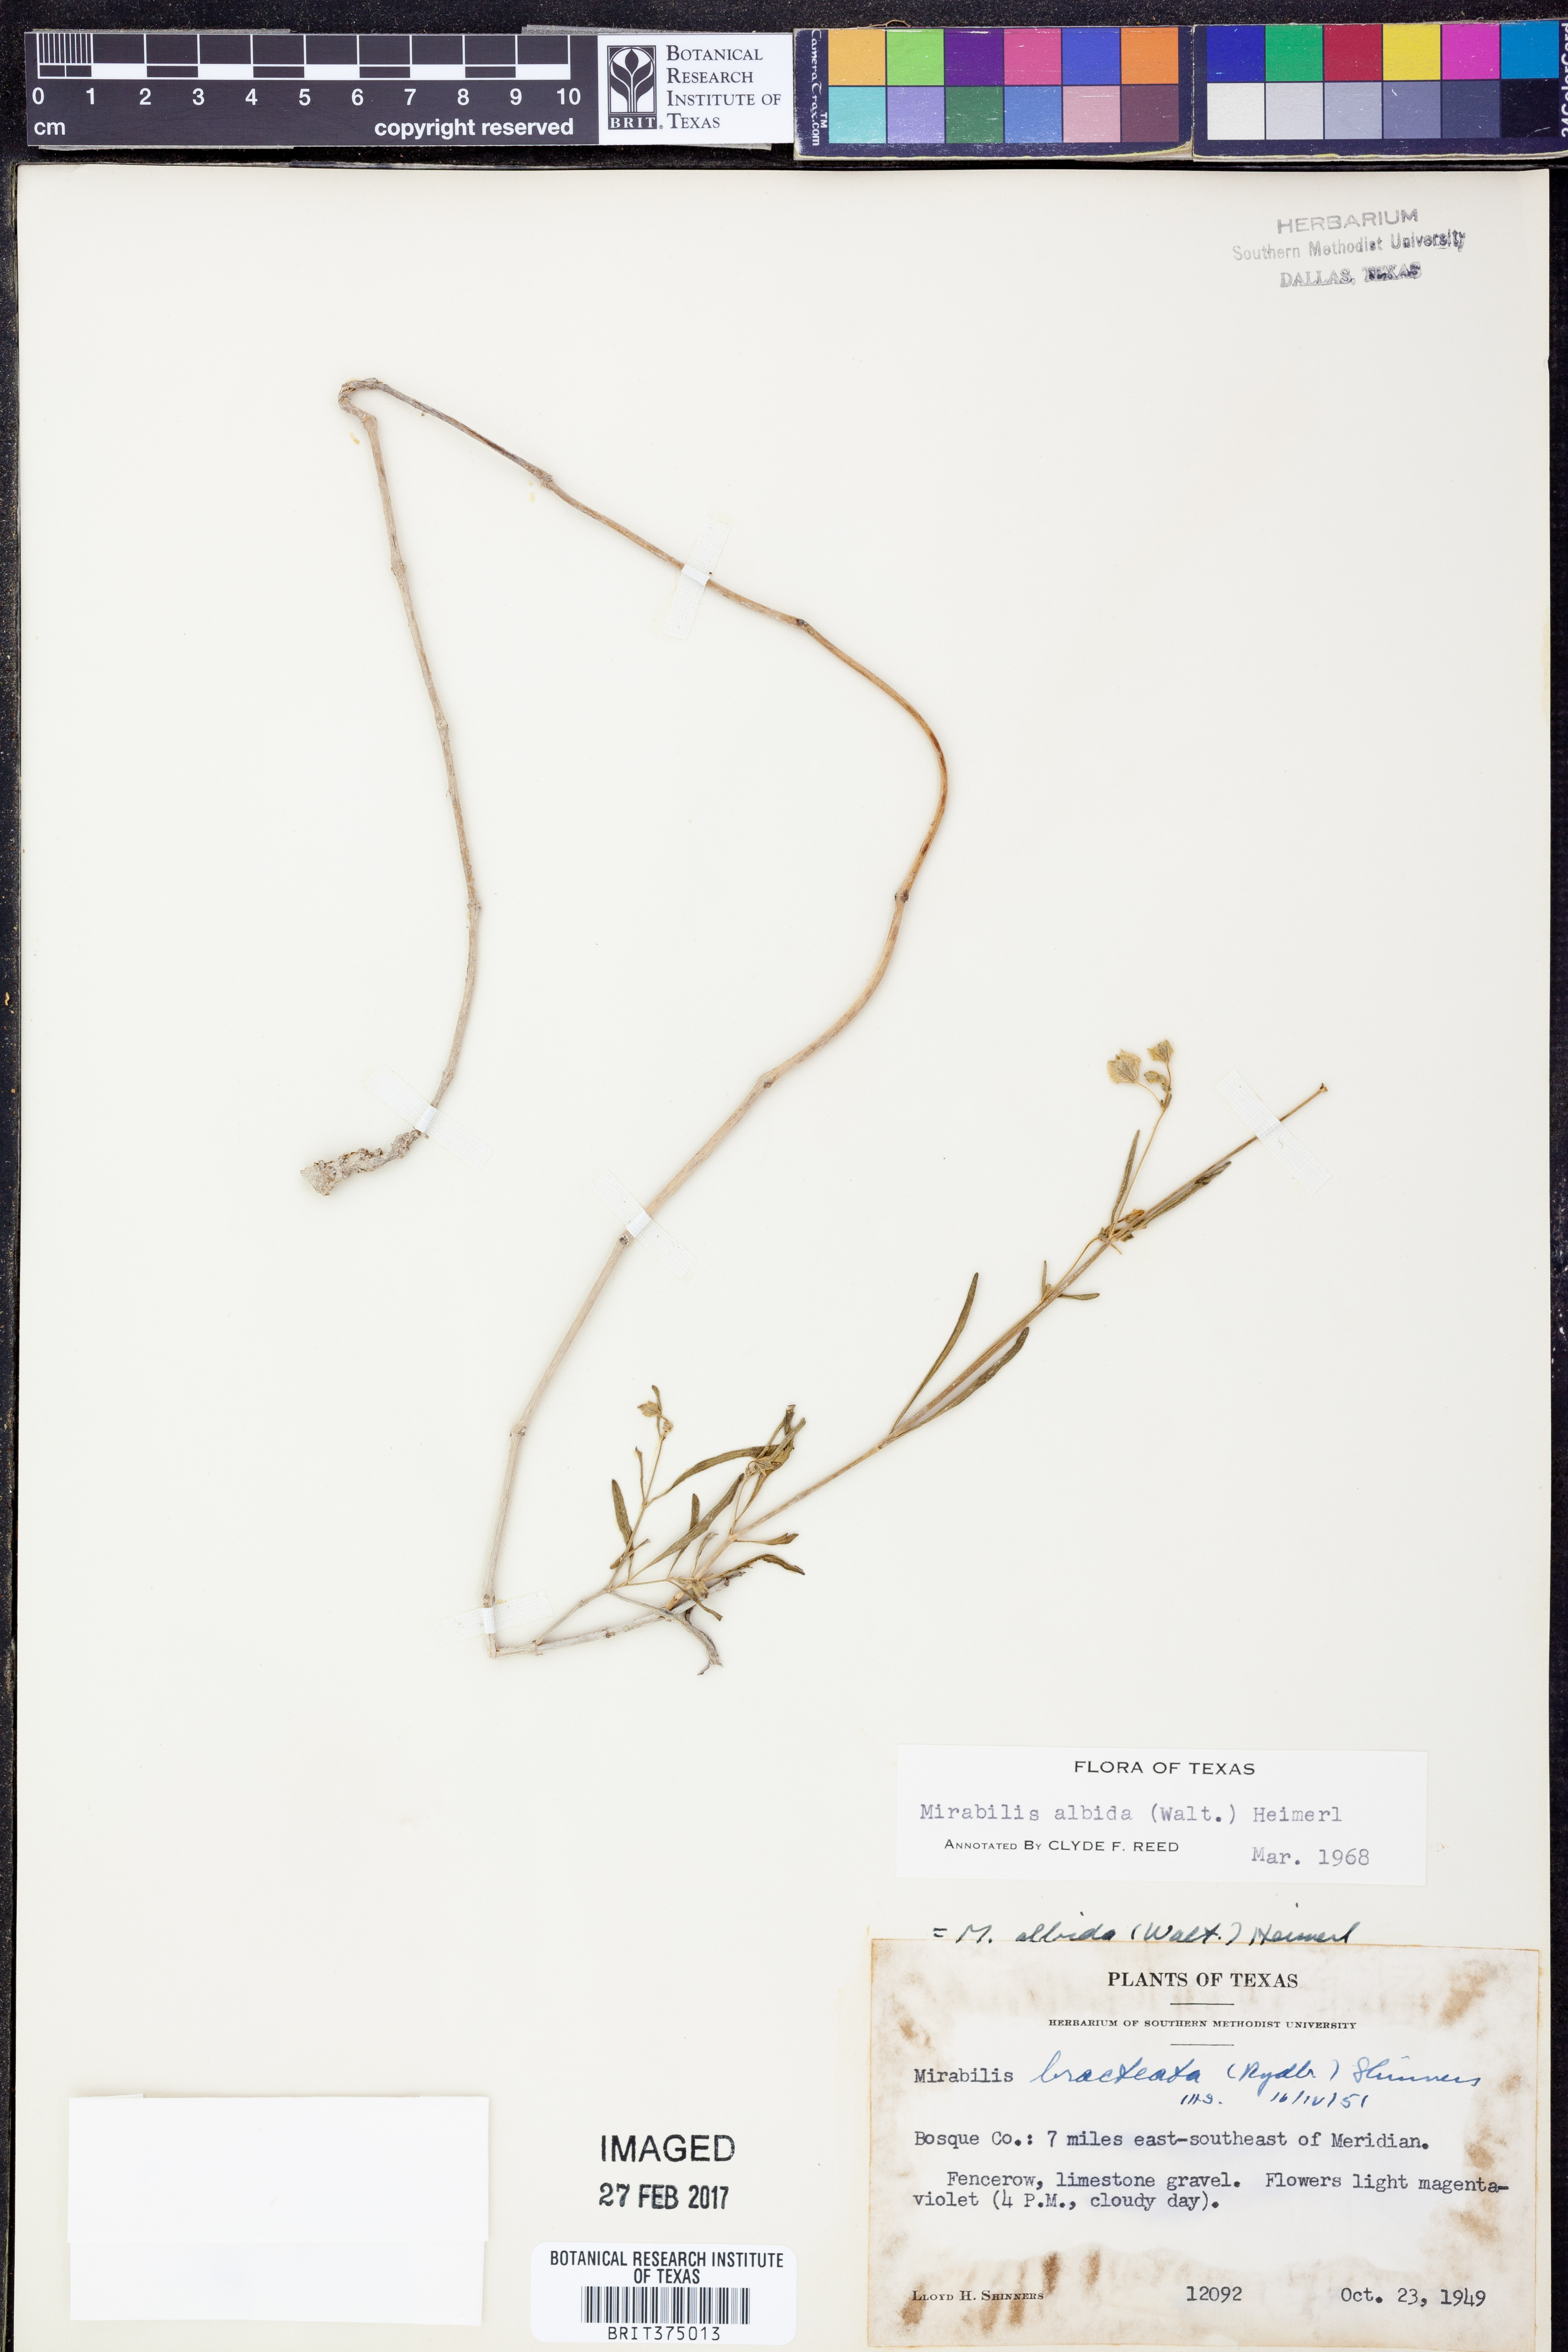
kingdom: Plantae
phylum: Tracheophyta
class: Magnoliopsida
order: Caryophyllales
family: Nyctaginaceae
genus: Mirabilis
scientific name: Mirabilis albida
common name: Hairy four-o'clock
